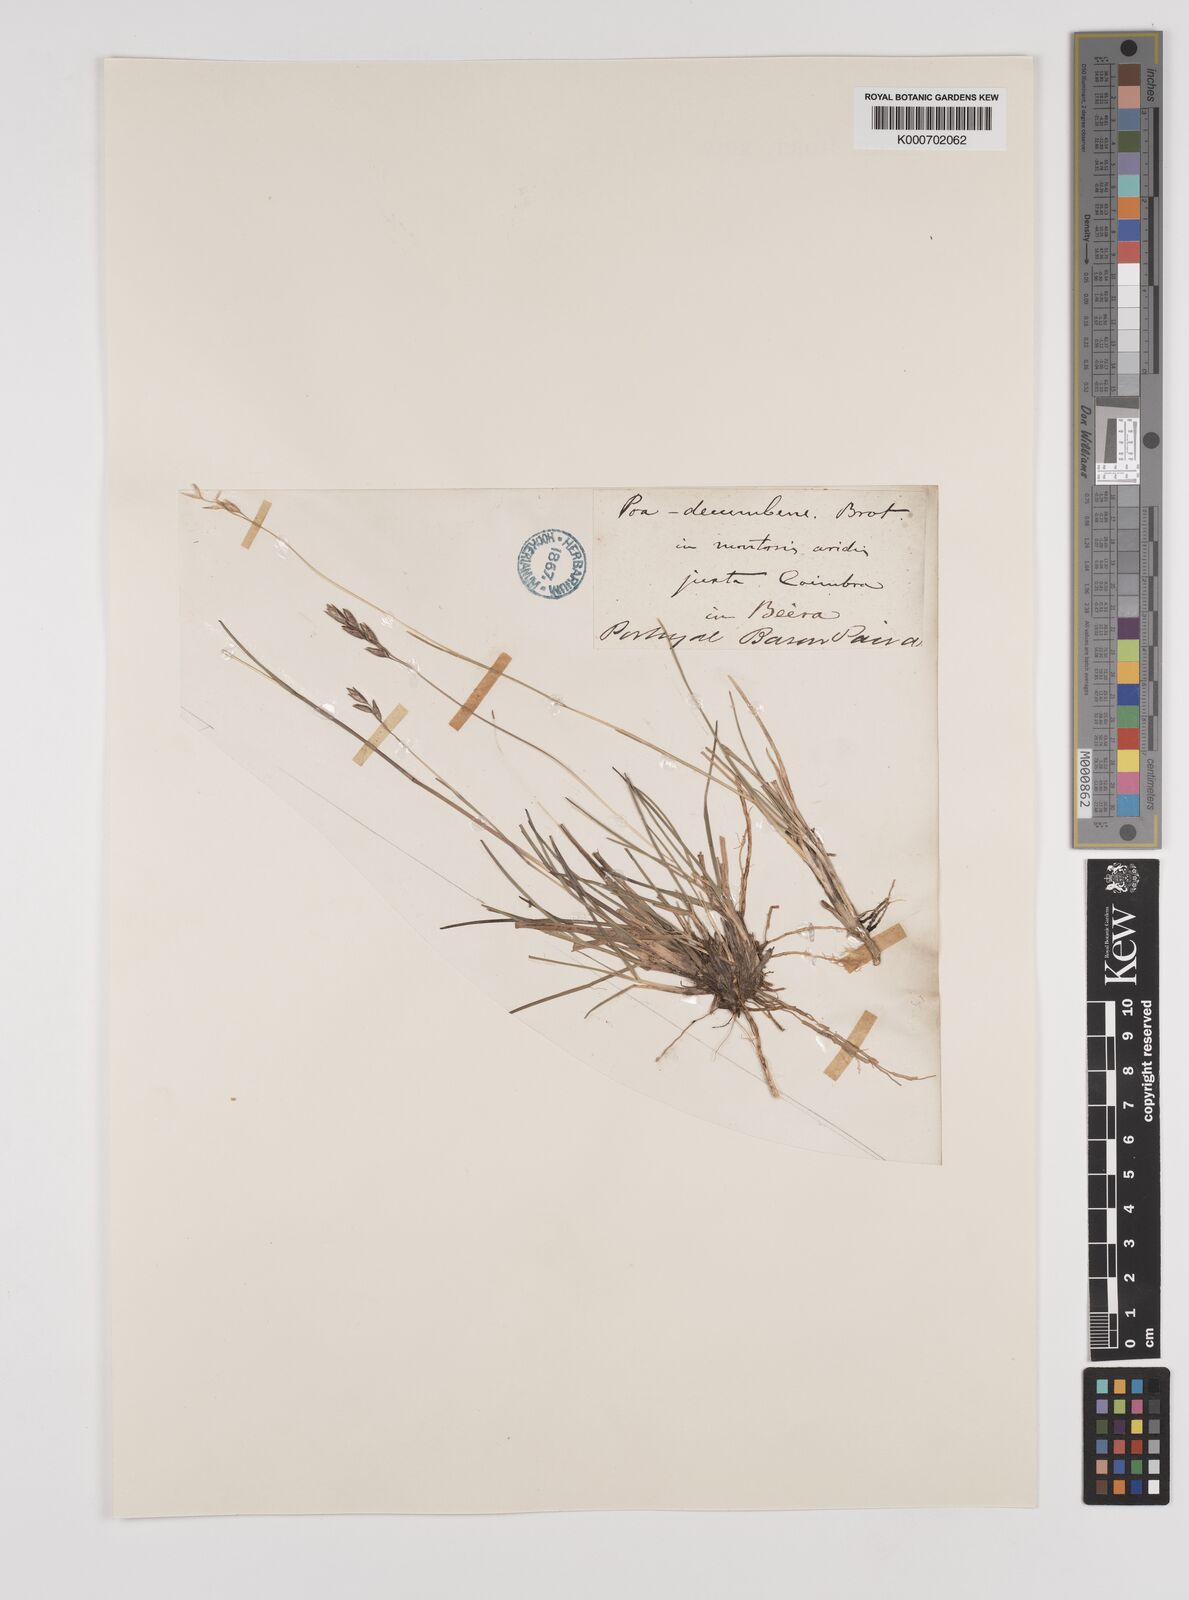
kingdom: Plantae
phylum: Tracheophyta
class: Liliopsida
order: Poales
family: Poaceae
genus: Danthonia
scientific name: Danthonia decumbens
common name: Common heathgrass
